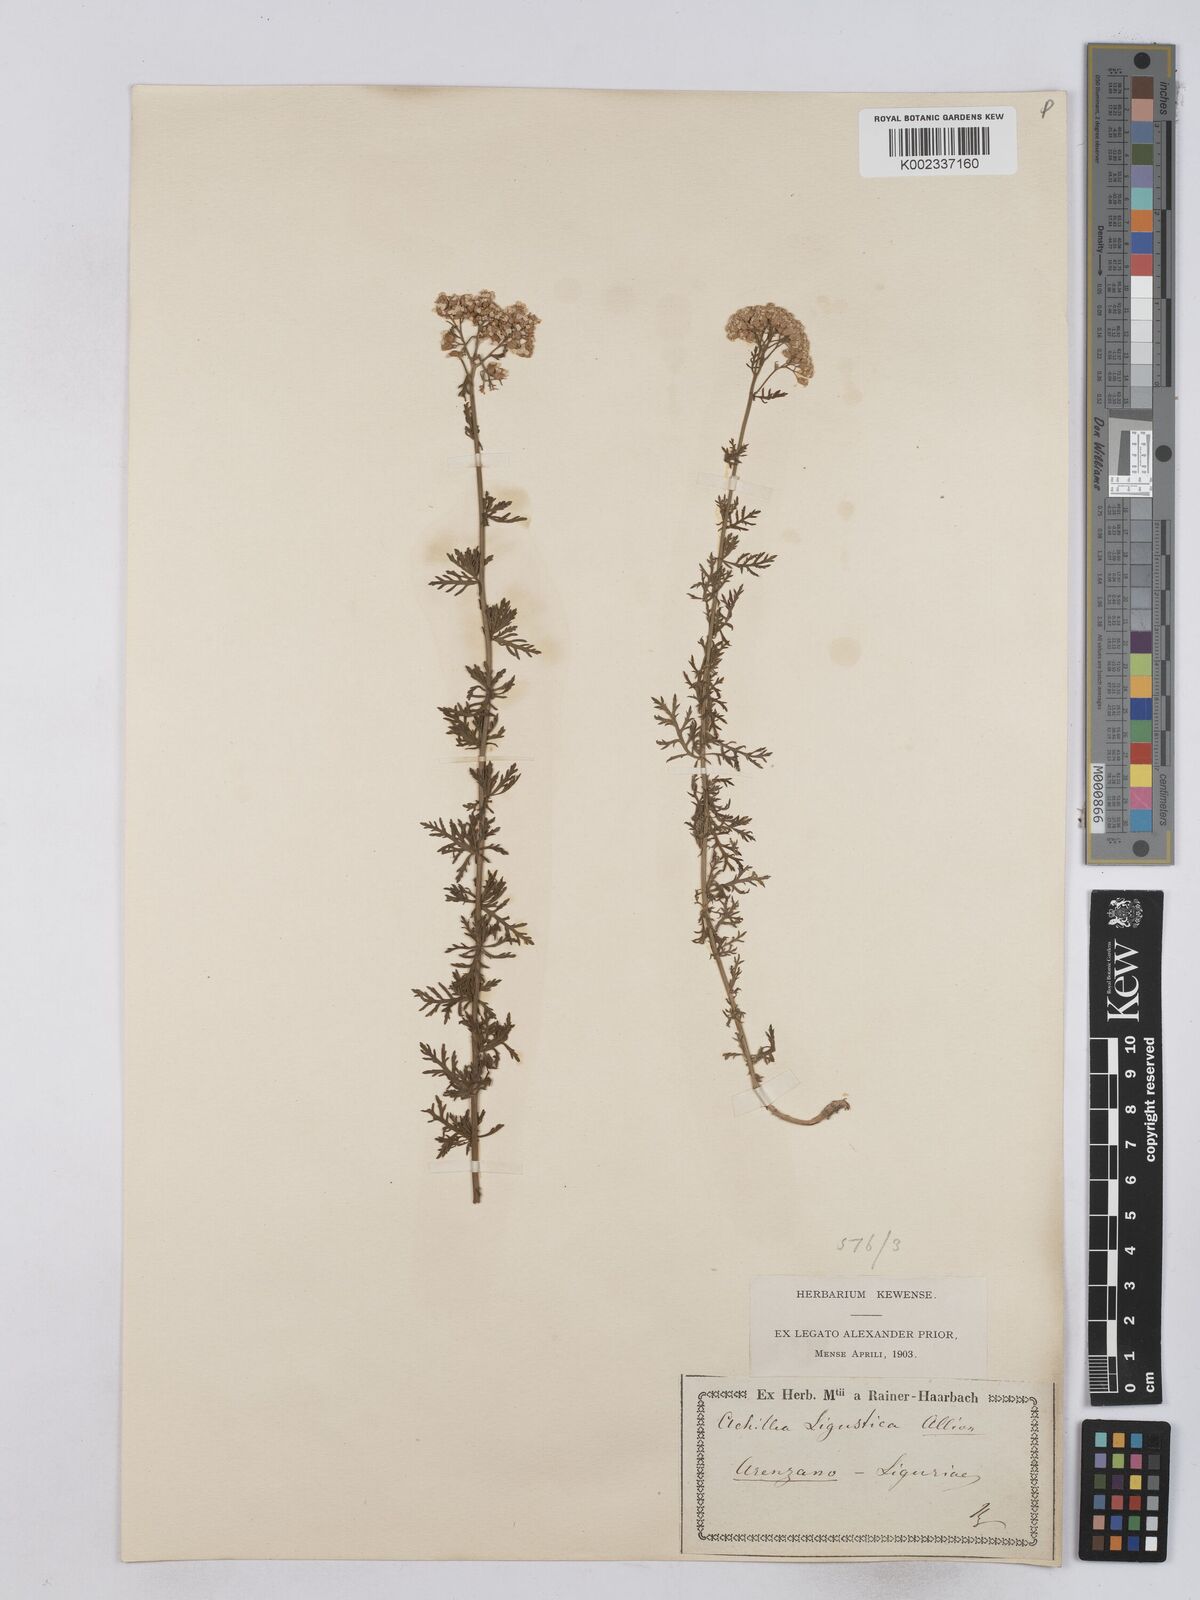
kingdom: Plantae
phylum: Tracheophyta
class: Magnoliopsida
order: Asterales
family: Asteraceae
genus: Achillea
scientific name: Achillea ligustica
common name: Southern yarrow
